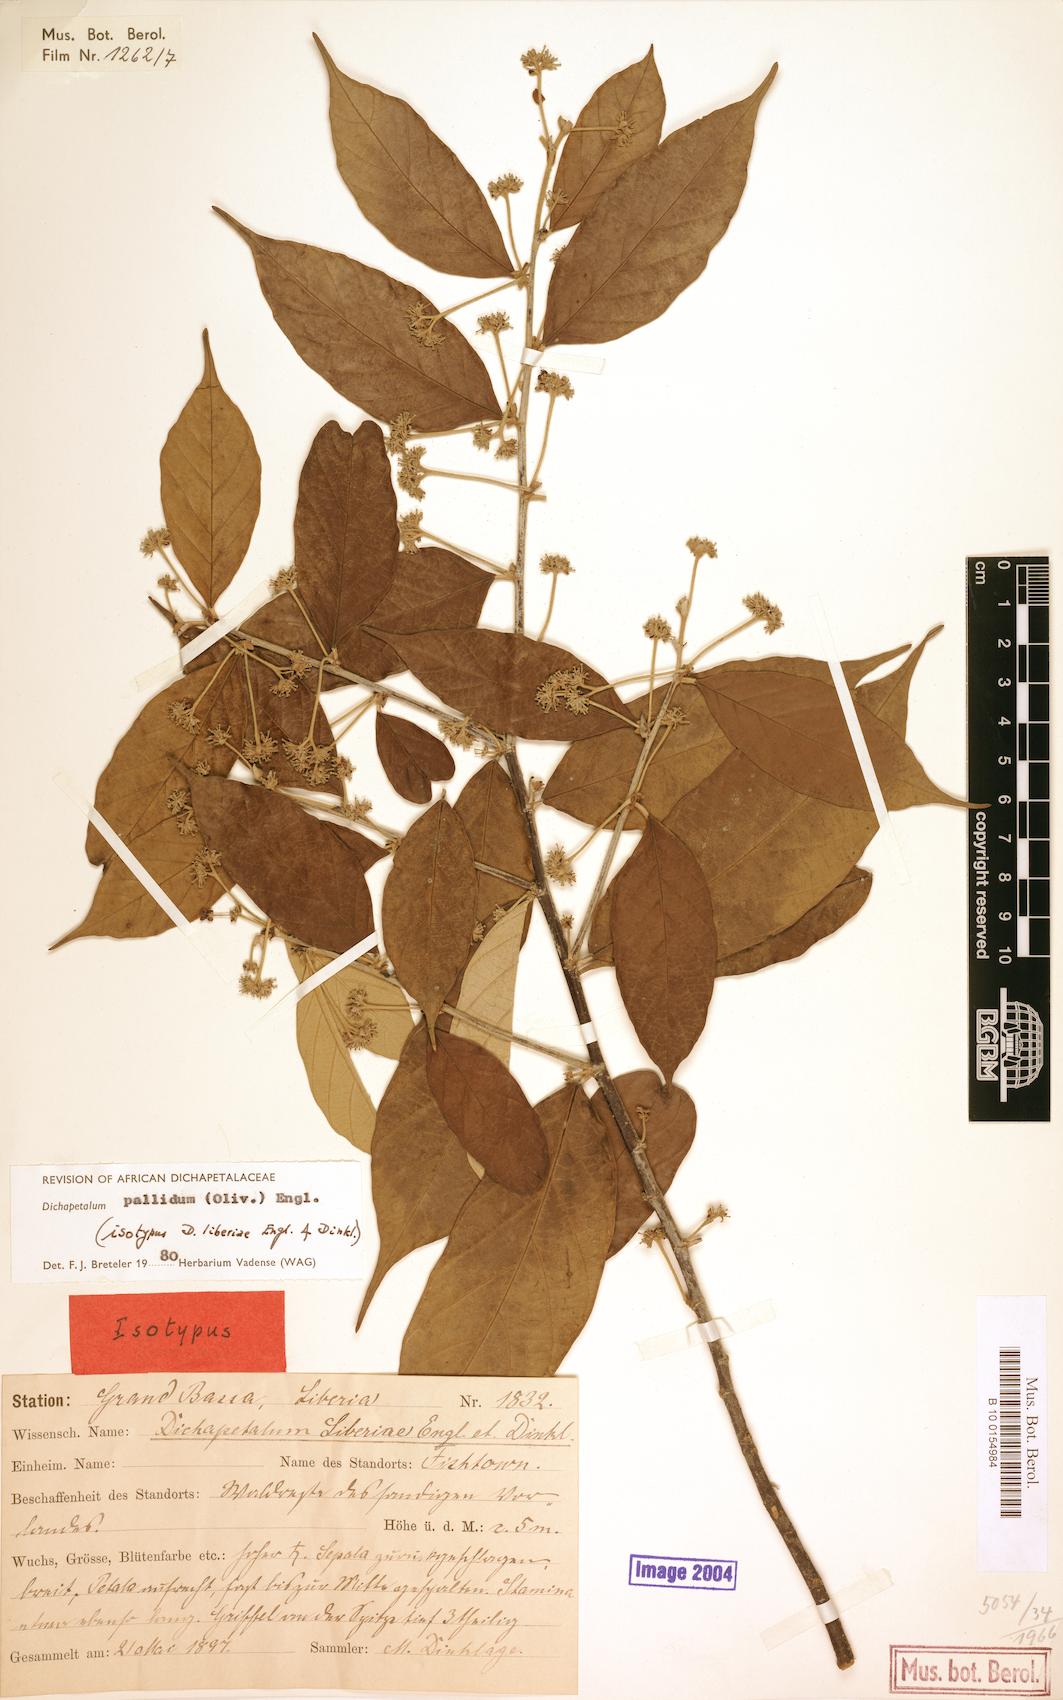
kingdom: Plantae
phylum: Tracheophyta
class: Magnoliopsida
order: Malpighiales
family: Dichapetalaceae
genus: Dichapetalum
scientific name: Dichapetalum pallidum
